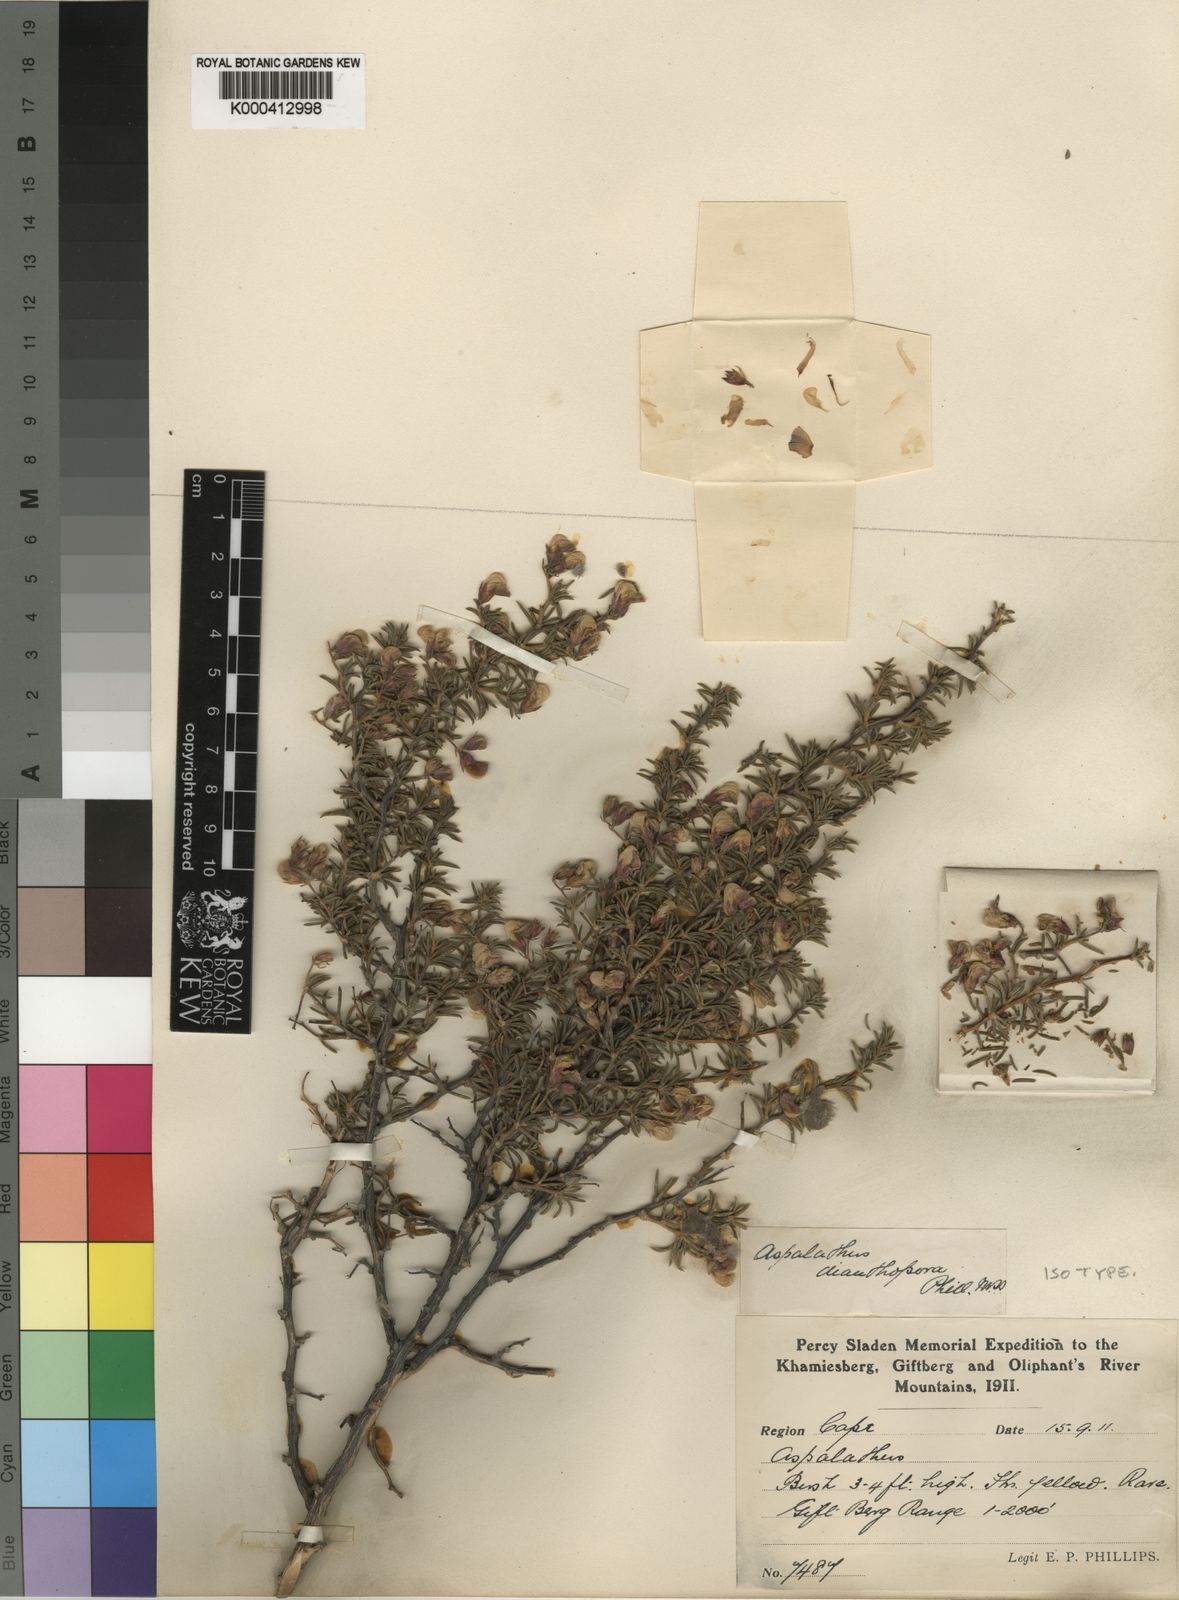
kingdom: Plantae
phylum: Tracheophyta
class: Magnoliopsida
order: Fabales
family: Fabaceae
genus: Aspalathus
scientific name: Aspalathus dianthopora
